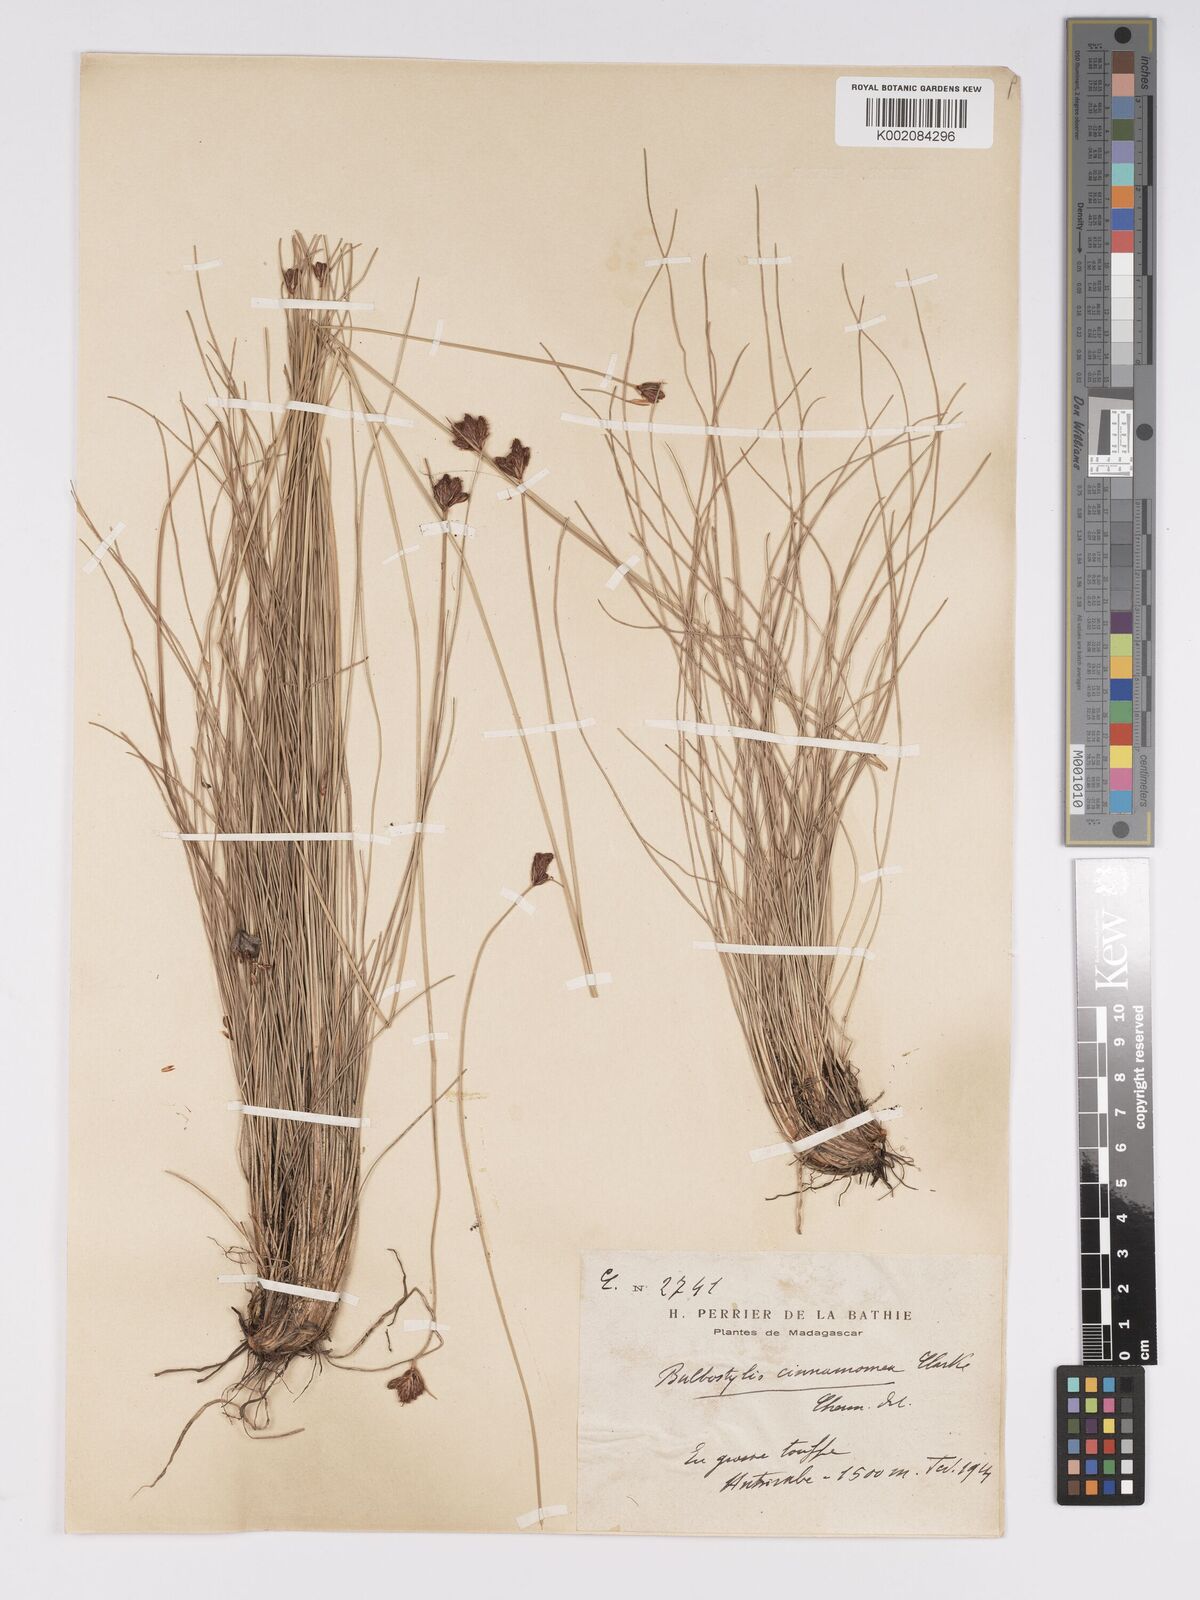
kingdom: Plantae
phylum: Tracheophyta
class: Liliopsida
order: Poales
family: Cyperaceae
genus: Bulbostylis
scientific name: Bulbostylis schoenoides
